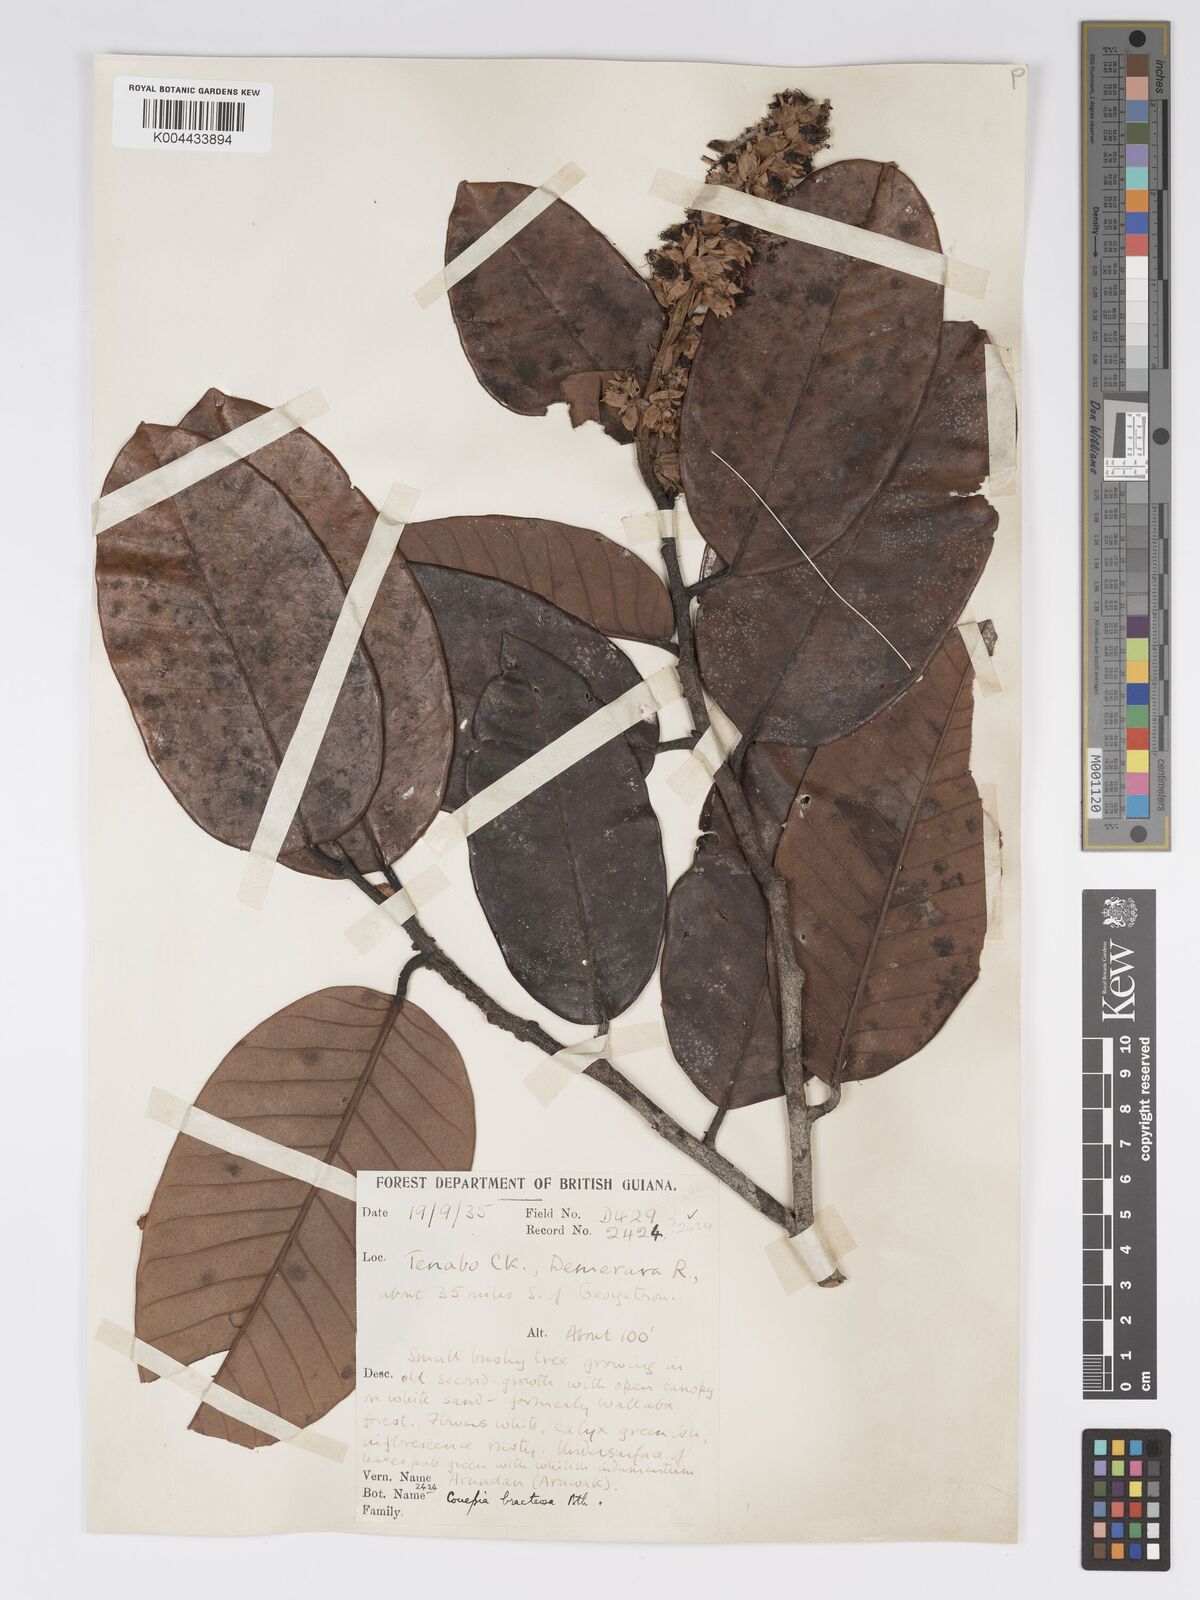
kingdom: Plantae
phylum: Tracheophyta
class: Magnoliopsida
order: Malpighiales
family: Chrysobalanaceae
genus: Couepia
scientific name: Couepia bracteosa
